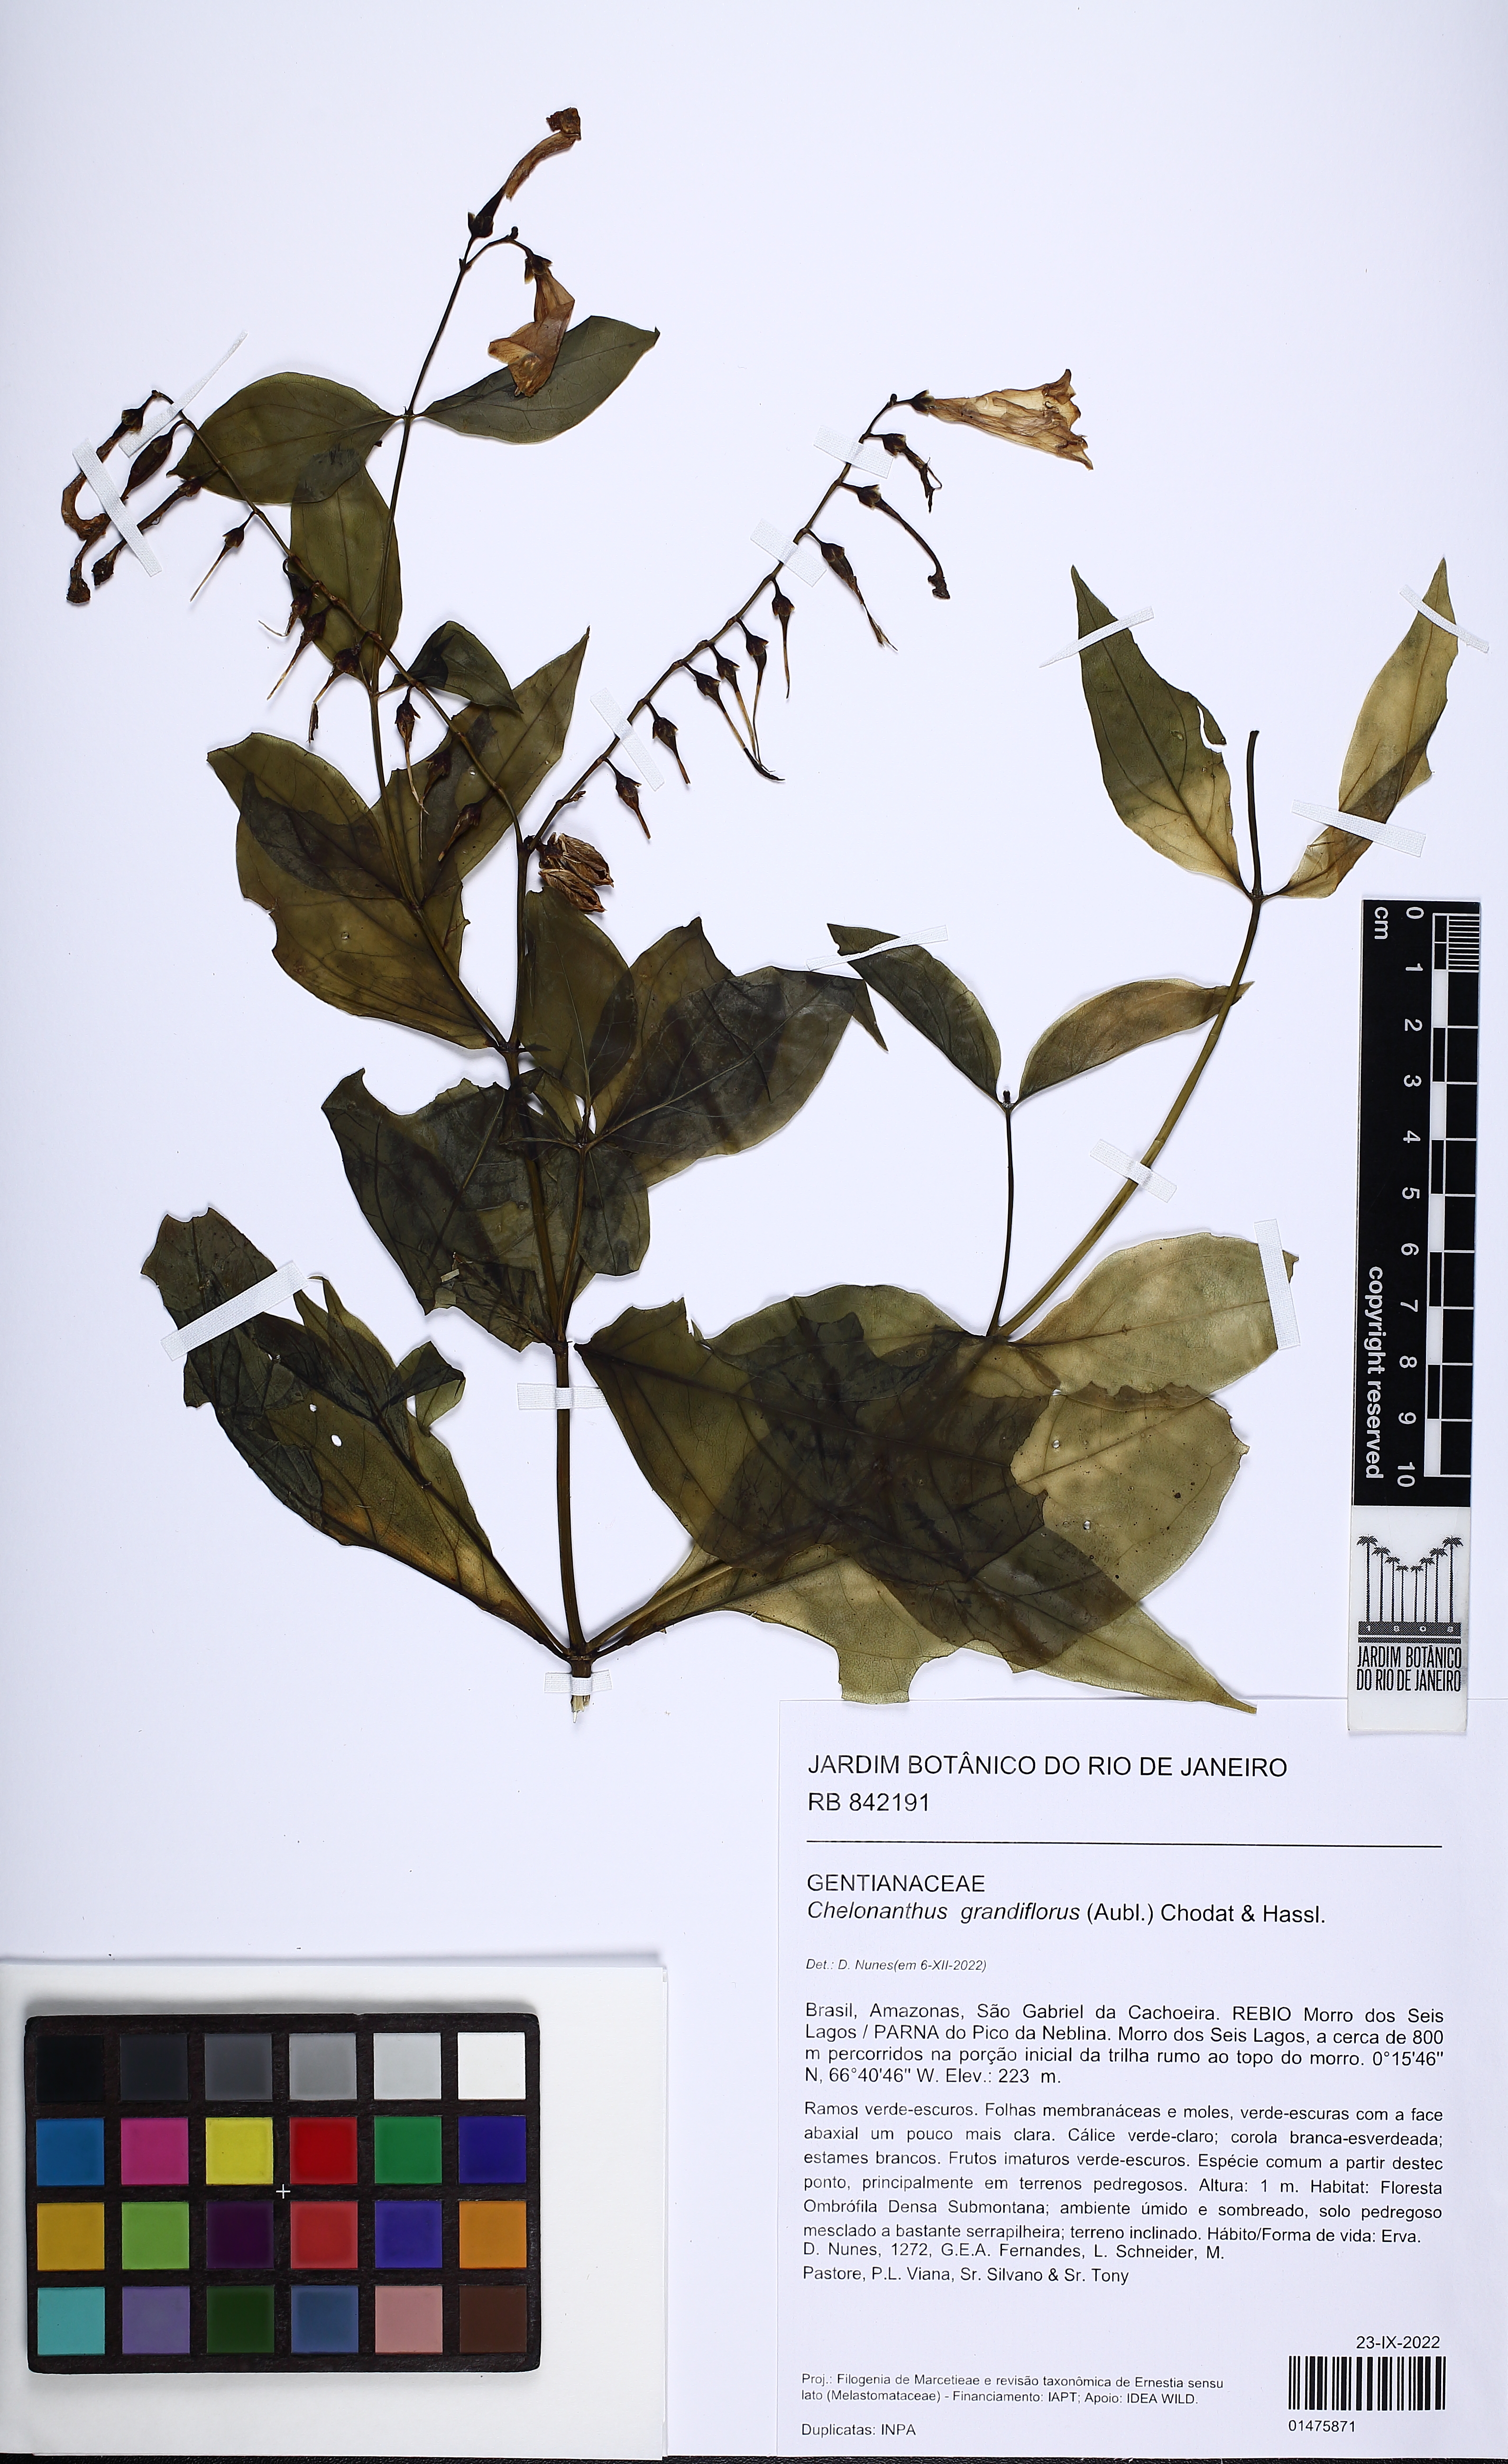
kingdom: Plantae
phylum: Tracheophyta
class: Magnoliopsida
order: Gentianales
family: Gentianaceae
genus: Chelonanthus
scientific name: Chelonanthus grandiflorus
